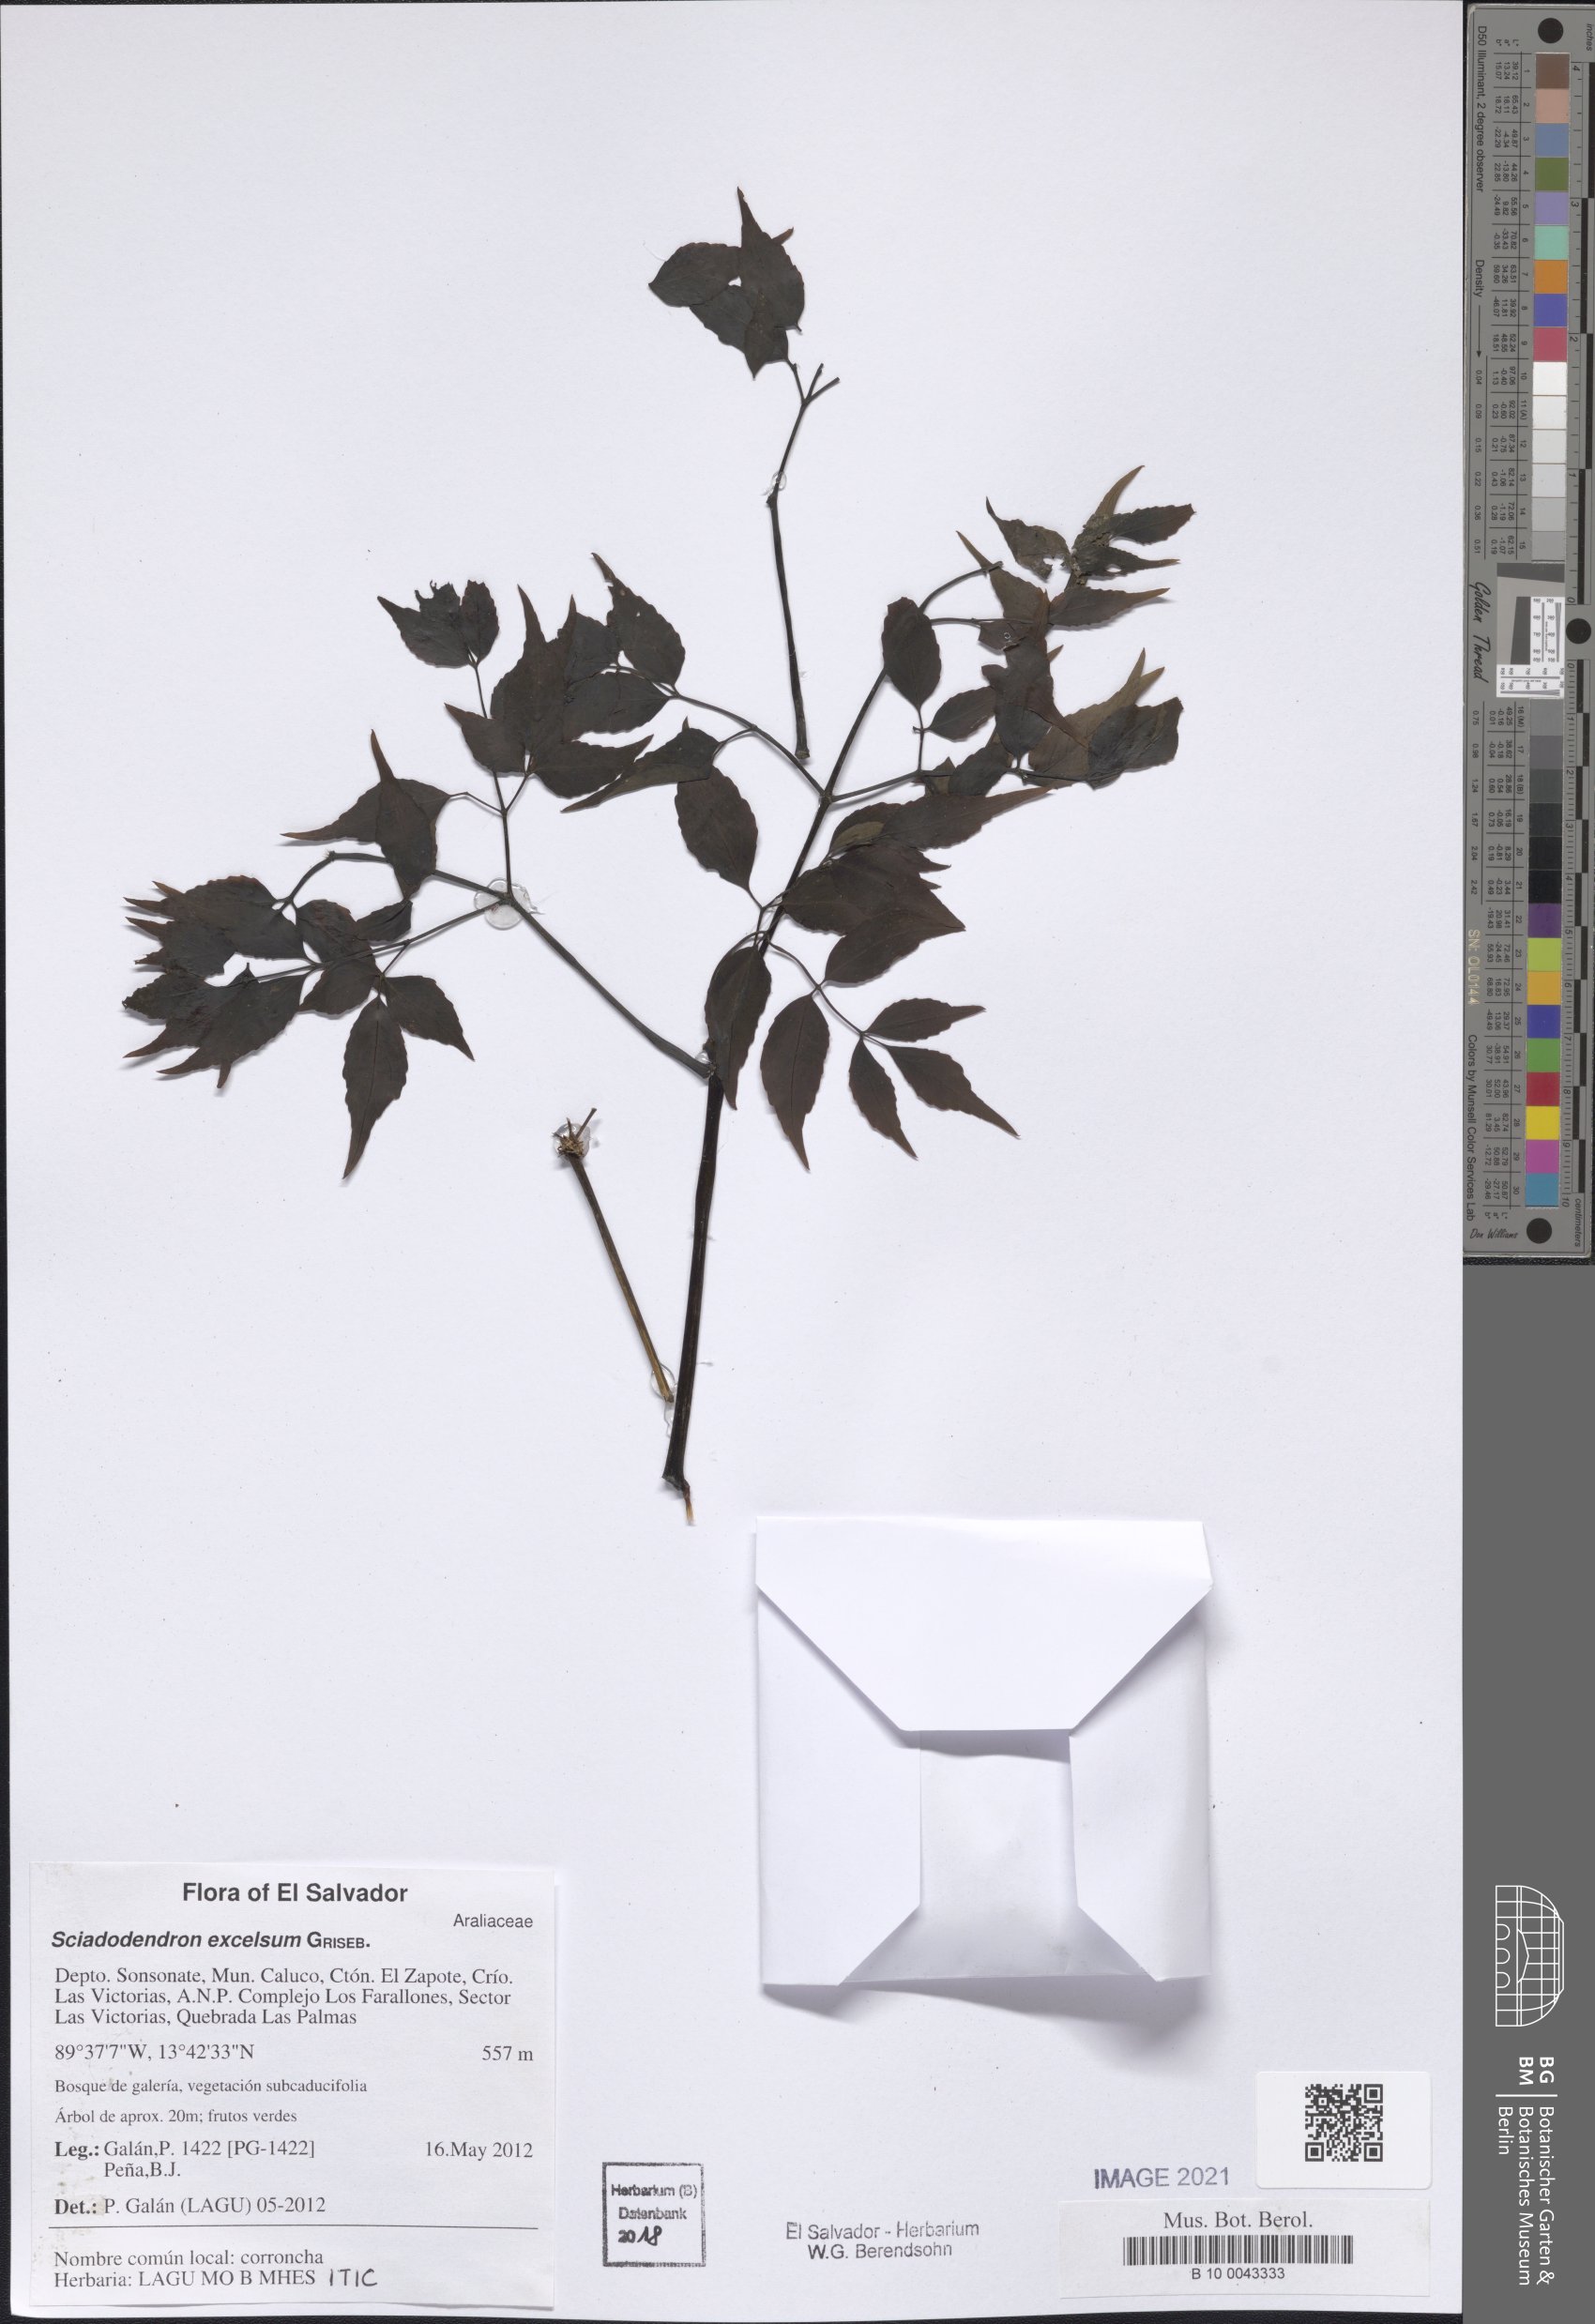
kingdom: Plantae
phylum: Tracheophyta
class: Magnoliopsida
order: Apiales
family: Araliaceae
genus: Aralia
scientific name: Aralia excelsa
